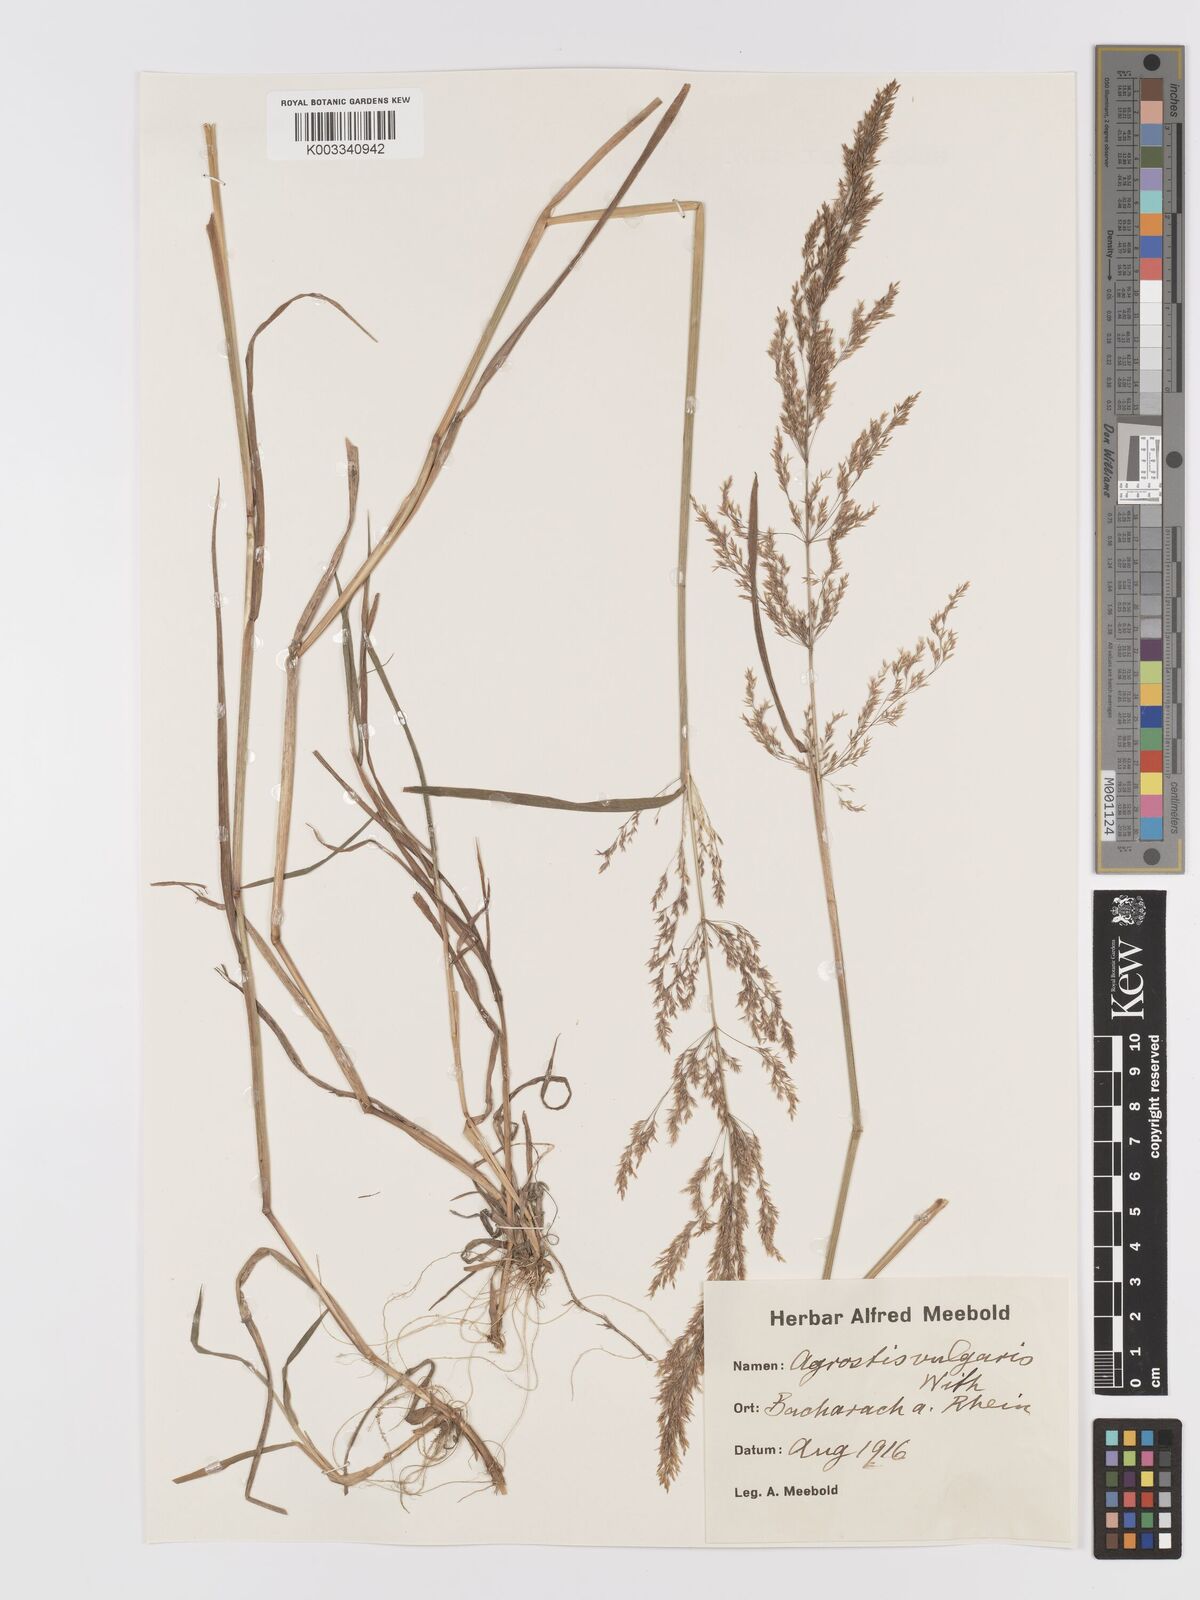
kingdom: Plantae
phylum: Tracheophyta
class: Liliopsida
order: Poales
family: Poaceae
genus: Agrostis
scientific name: Agrostis capillaris
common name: Colonial bentgrass
